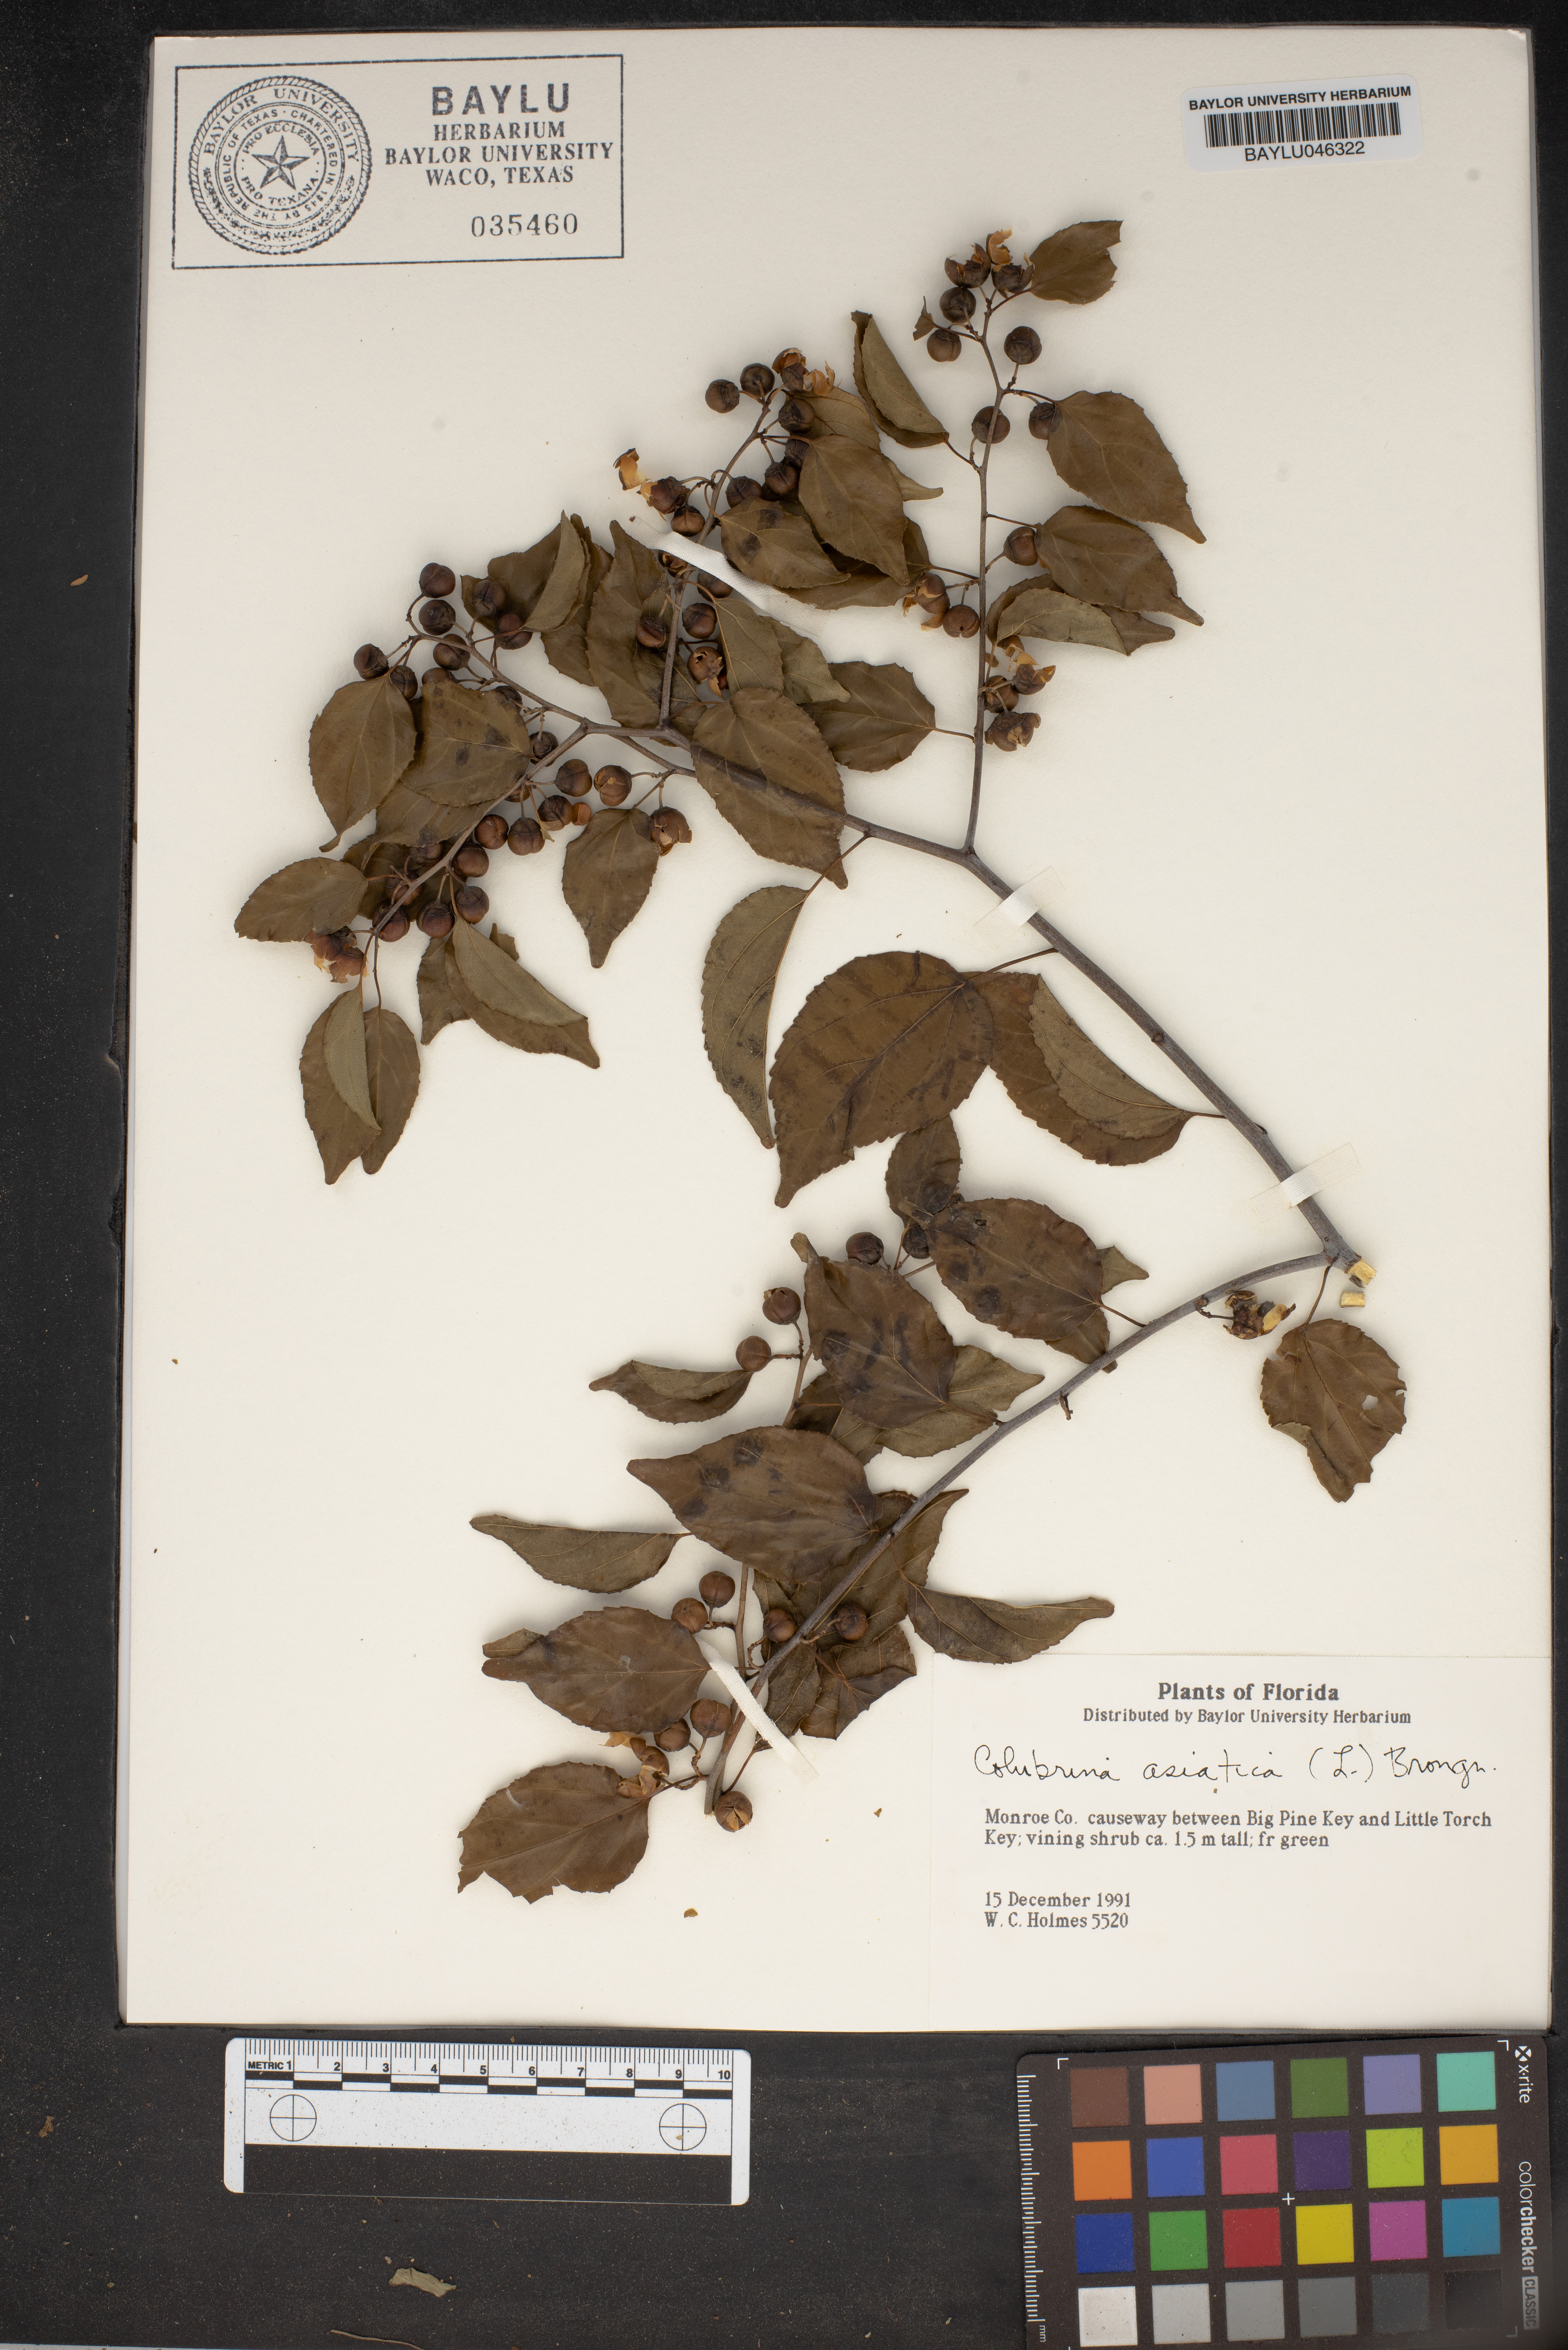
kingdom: Plantae
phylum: Tracheophyta
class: Magnoliopsida
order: Rosales
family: Rhamnaceae
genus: Colubrina
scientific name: Colubrina asiatica
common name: Asian nakedwood
